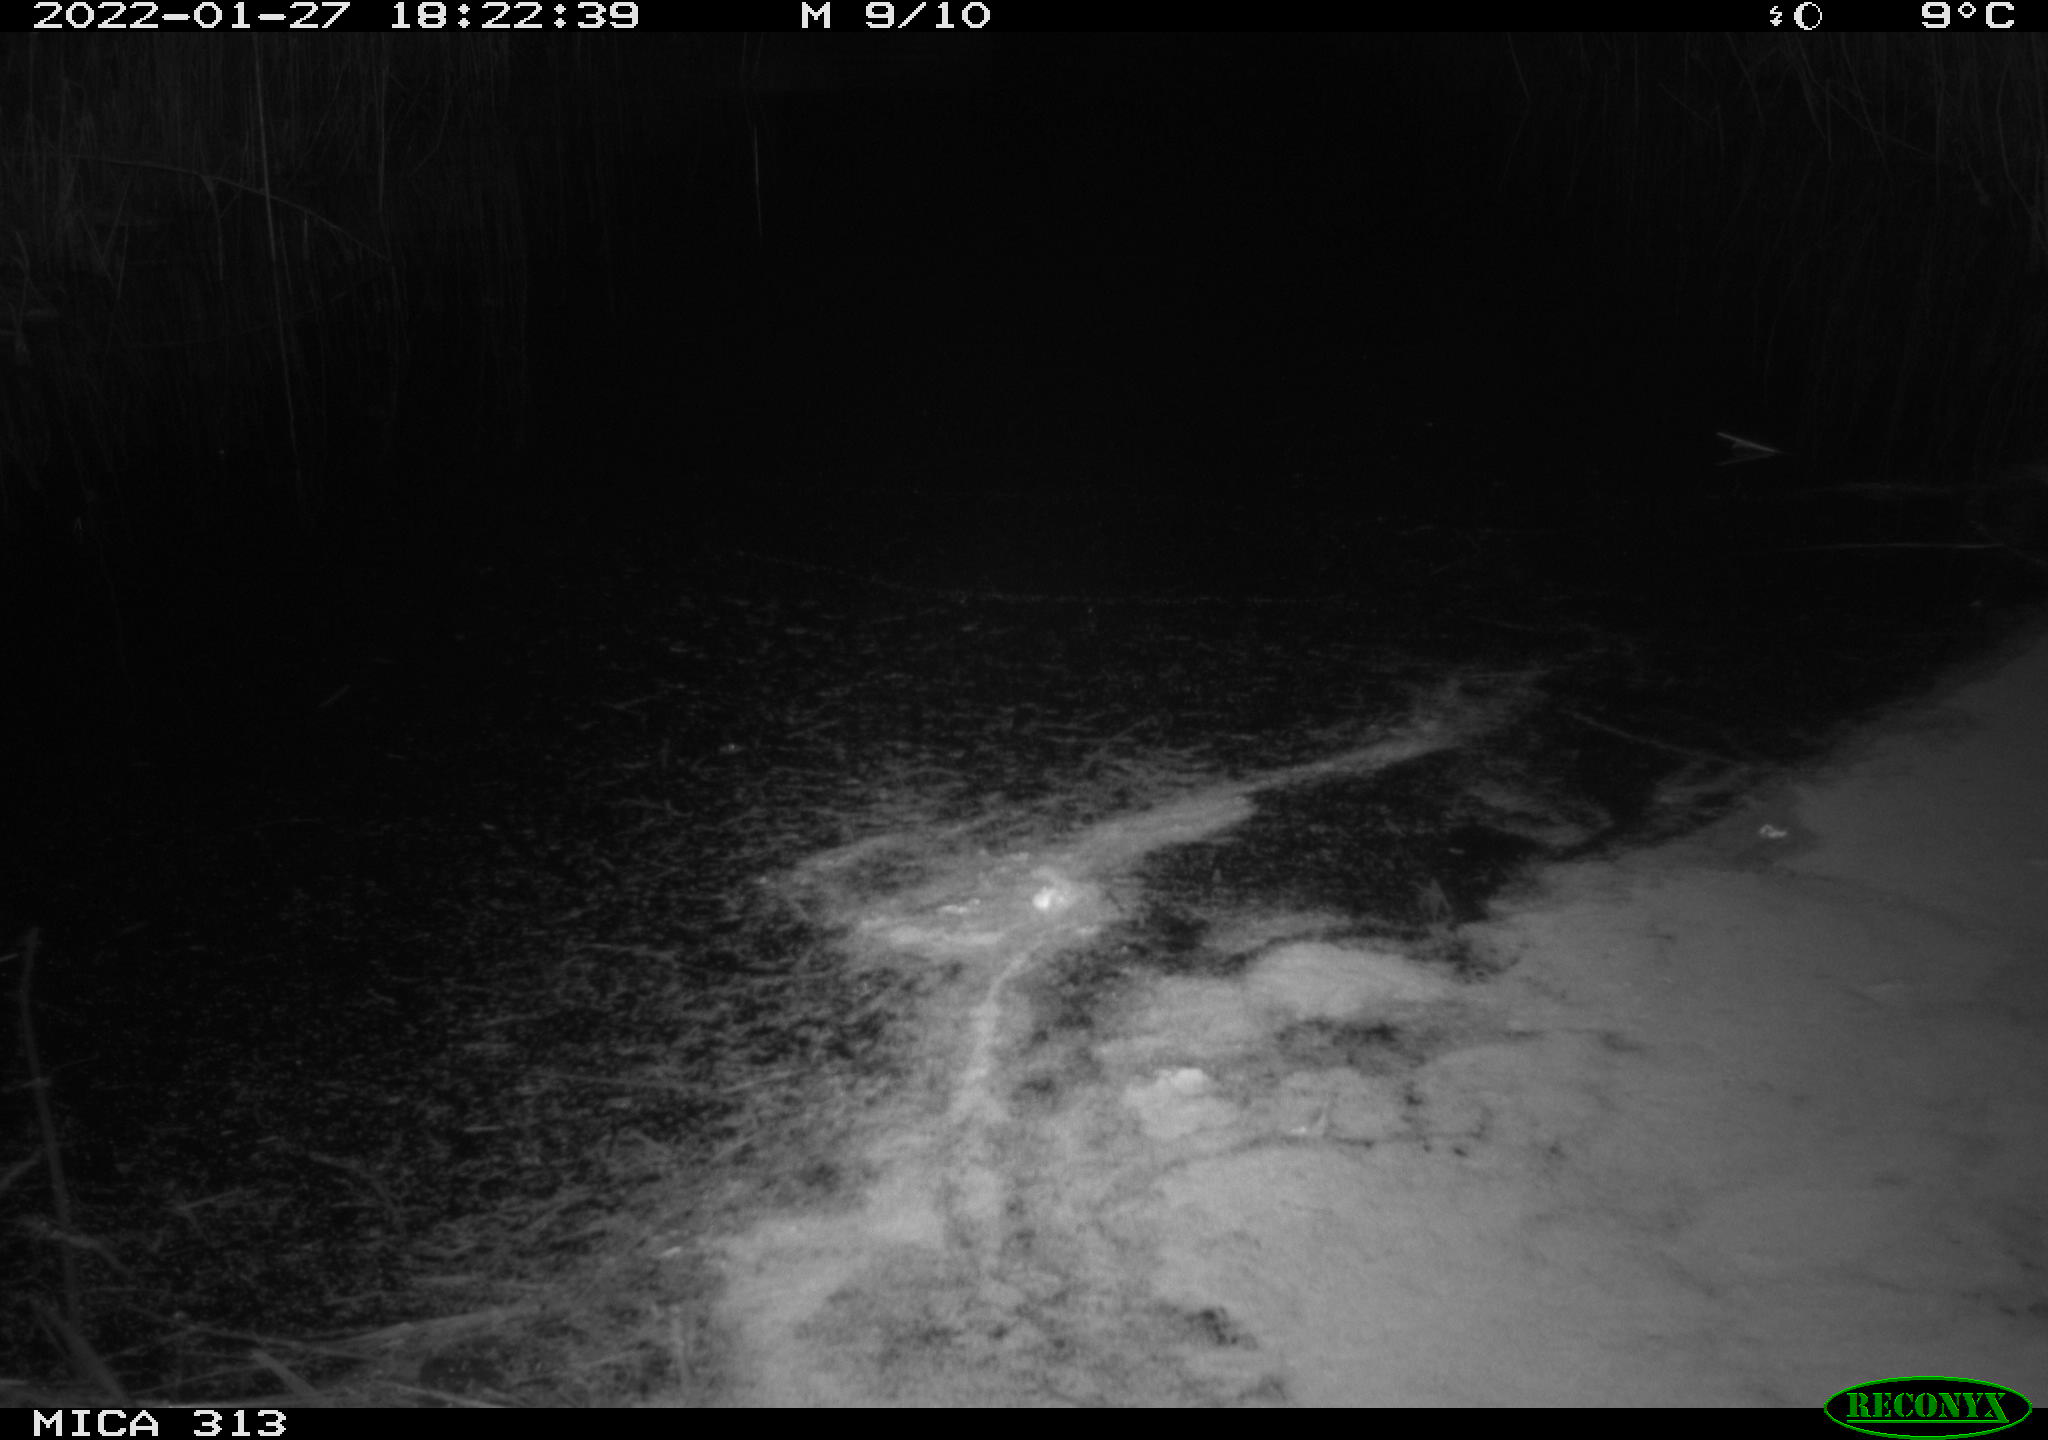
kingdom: Animalia
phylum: Chordata
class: Aves
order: Gruiformes
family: Rallidae
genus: Gallinula
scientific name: Gallinula chloropus
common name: Common moorhen
